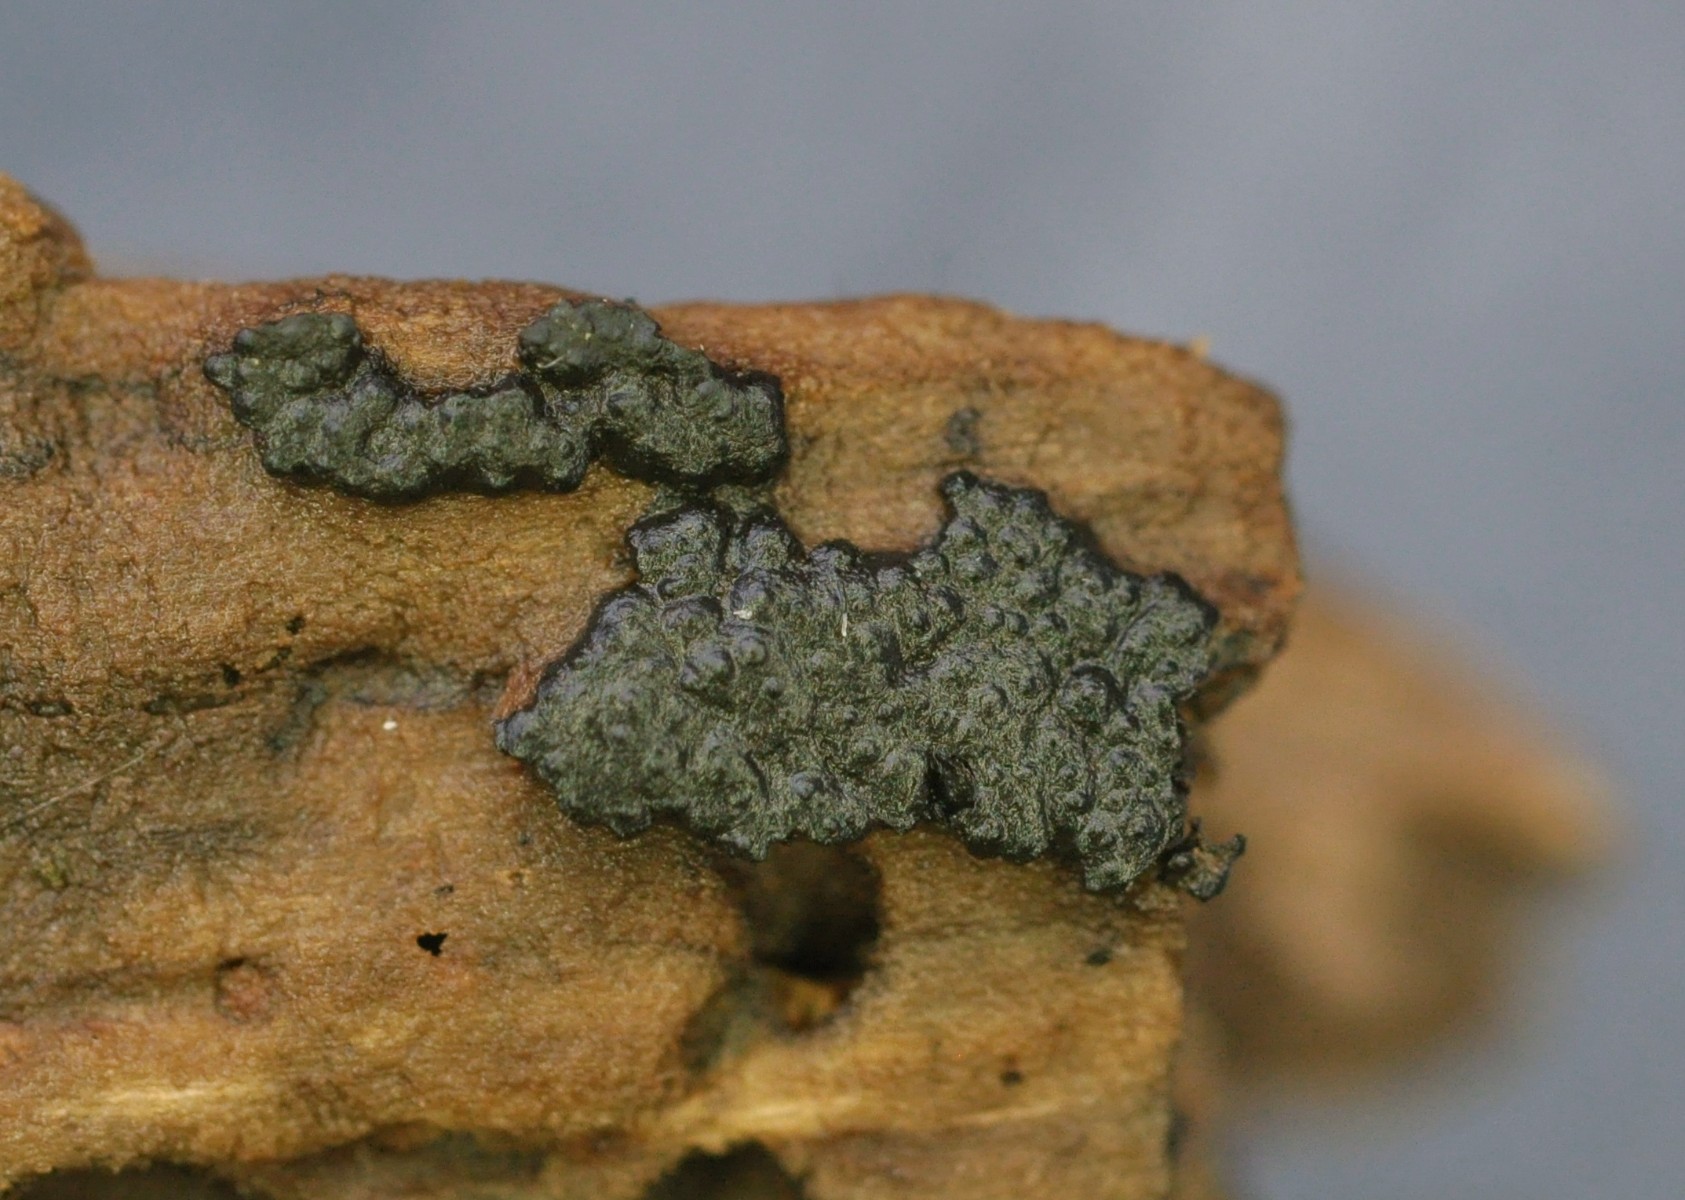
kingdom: Fungi
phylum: Ascomycota
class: Sordariomycetes
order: Xylariales
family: Xylariaceae
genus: Nemania
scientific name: Nemania
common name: kuldyne
